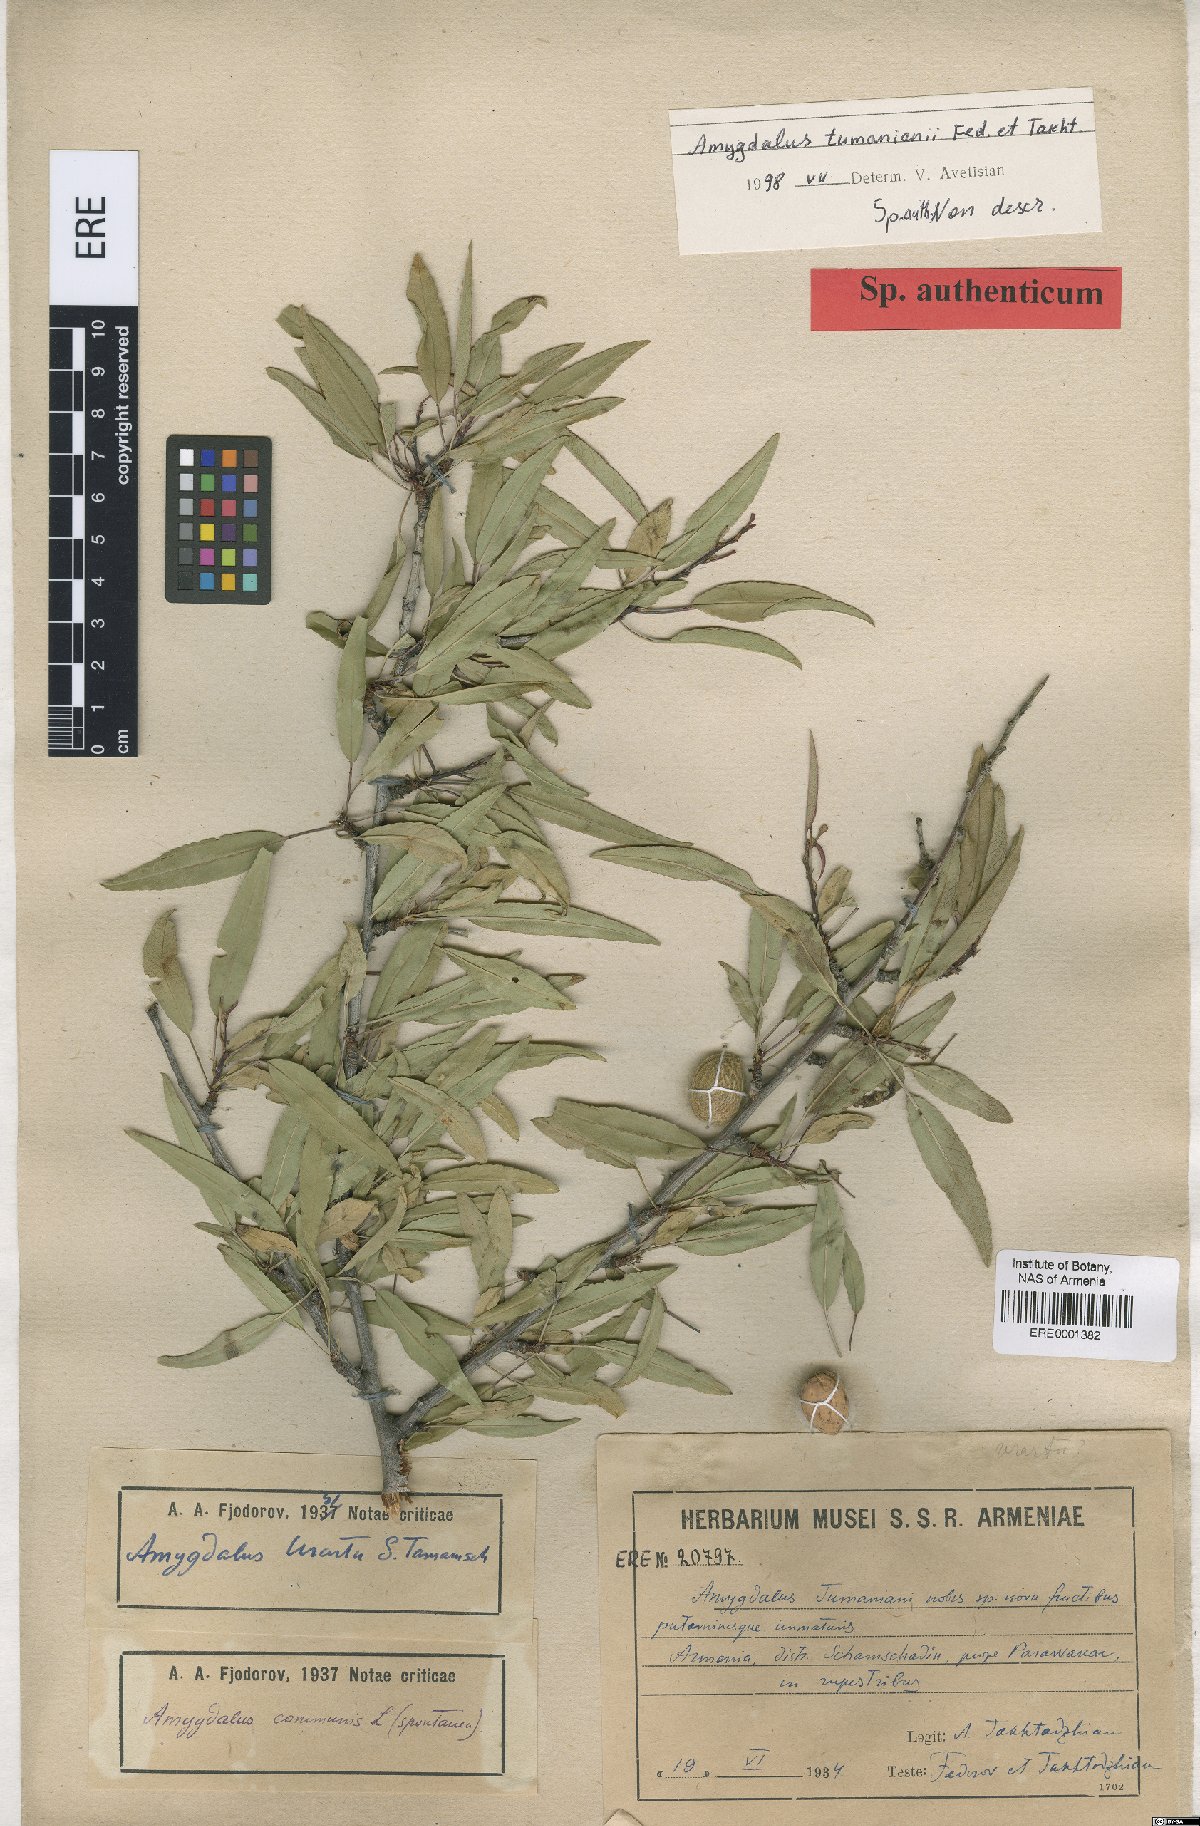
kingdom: Plantae
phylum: Tracheophyta
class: Magnoliopsida
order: Rosales
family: Rosaceae
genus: Prunus
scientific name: Prunus
